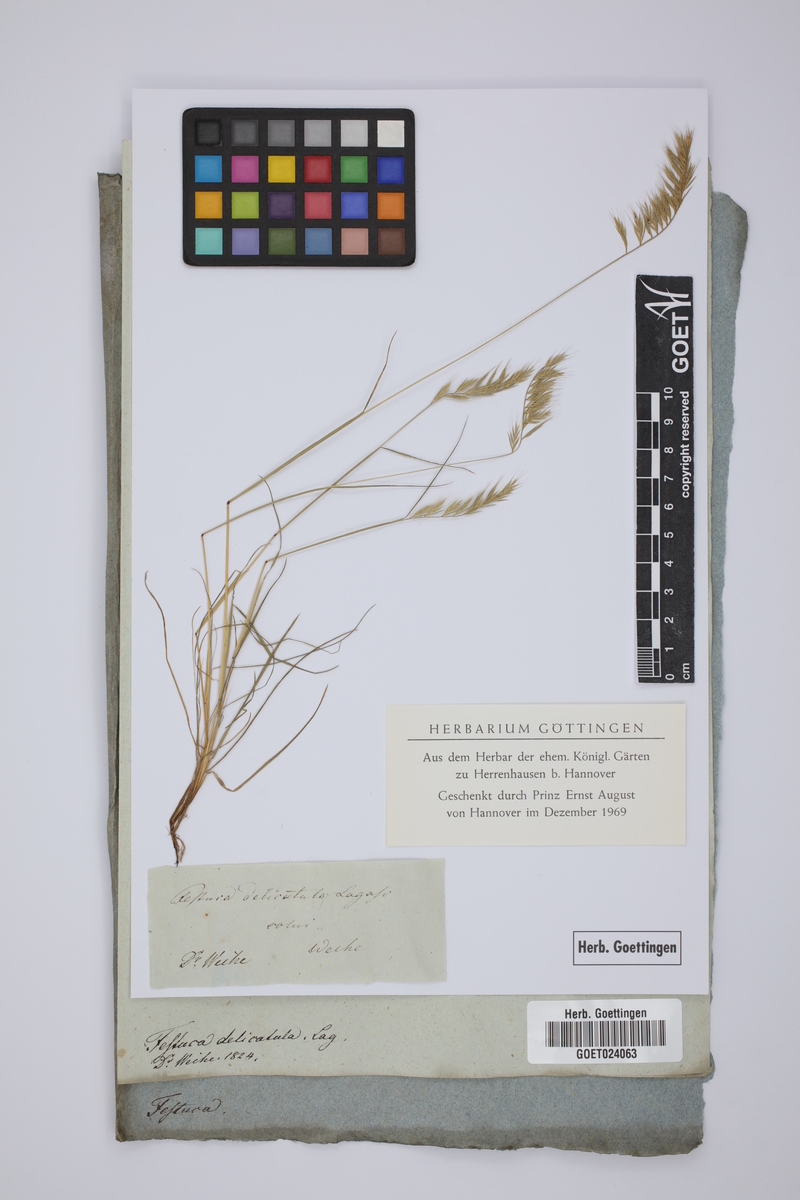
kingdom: Plantae
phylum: Tracheophyta
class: Liliopsida
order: Poales
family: Poaceae
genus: Festuca
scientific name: Festuca delicatula
